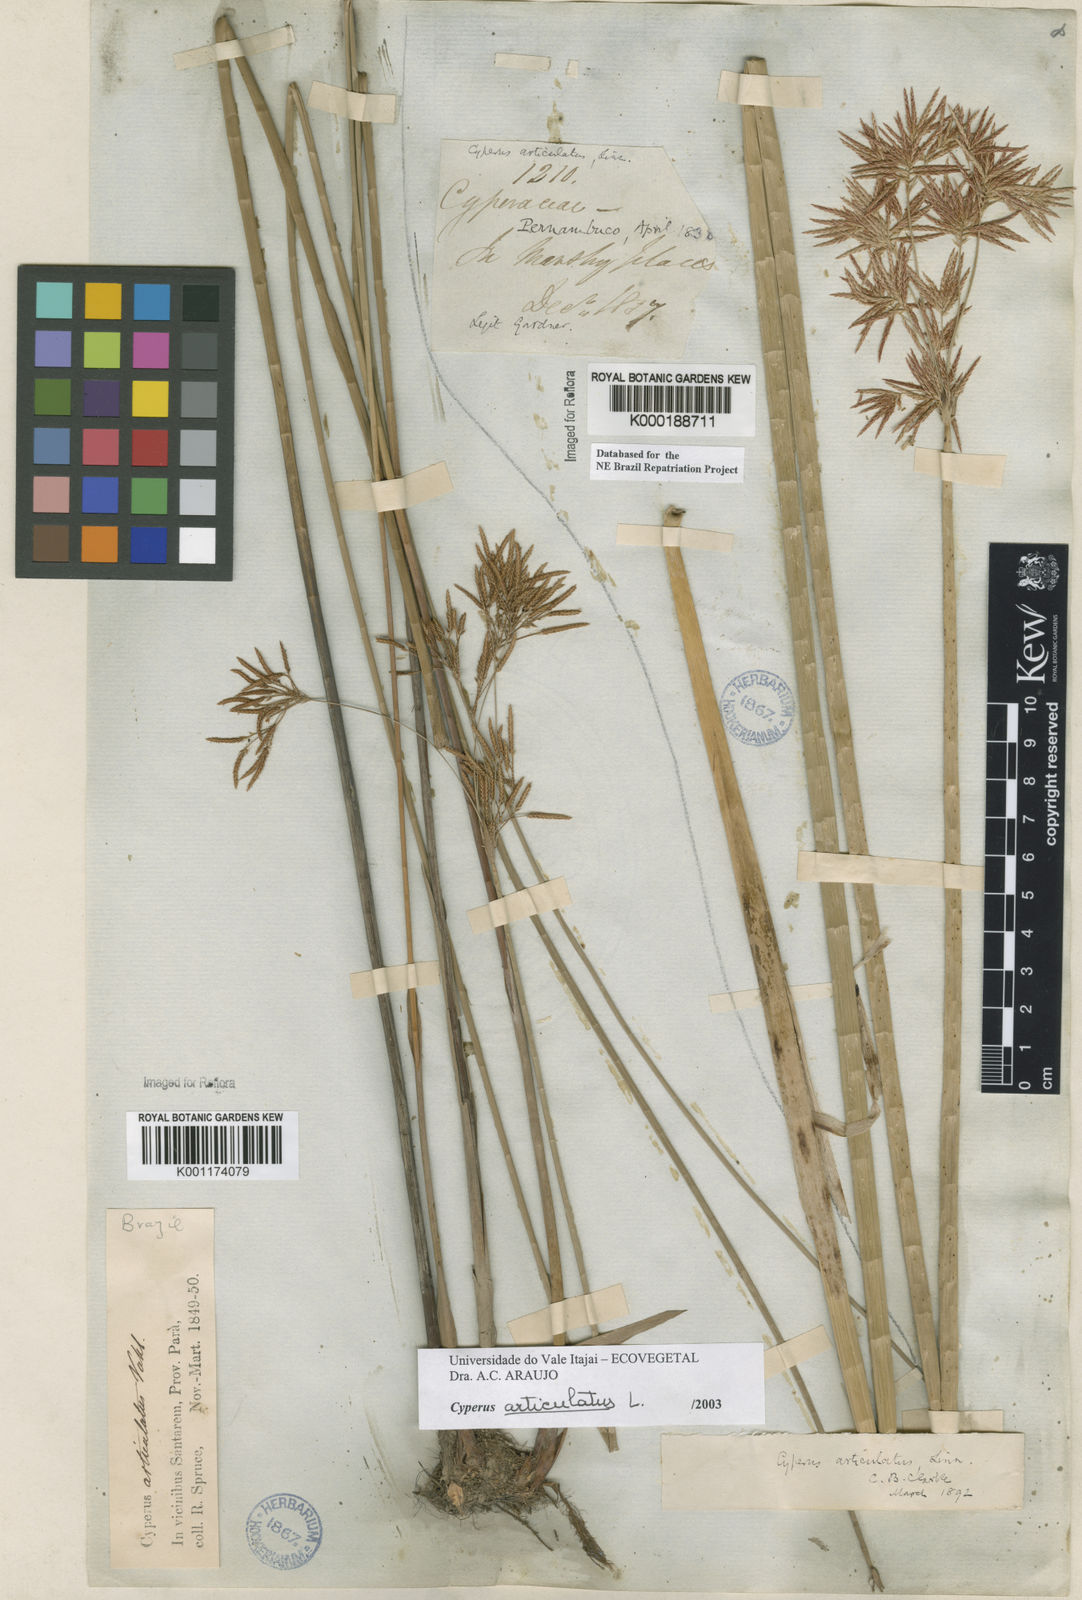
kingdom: Plantae
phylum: Tracheophyta
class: Liliopsida
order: Poales
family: Cyperaceae
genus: Cyperus
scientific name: Cyperus articulatus
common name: Jointed flatsedge
